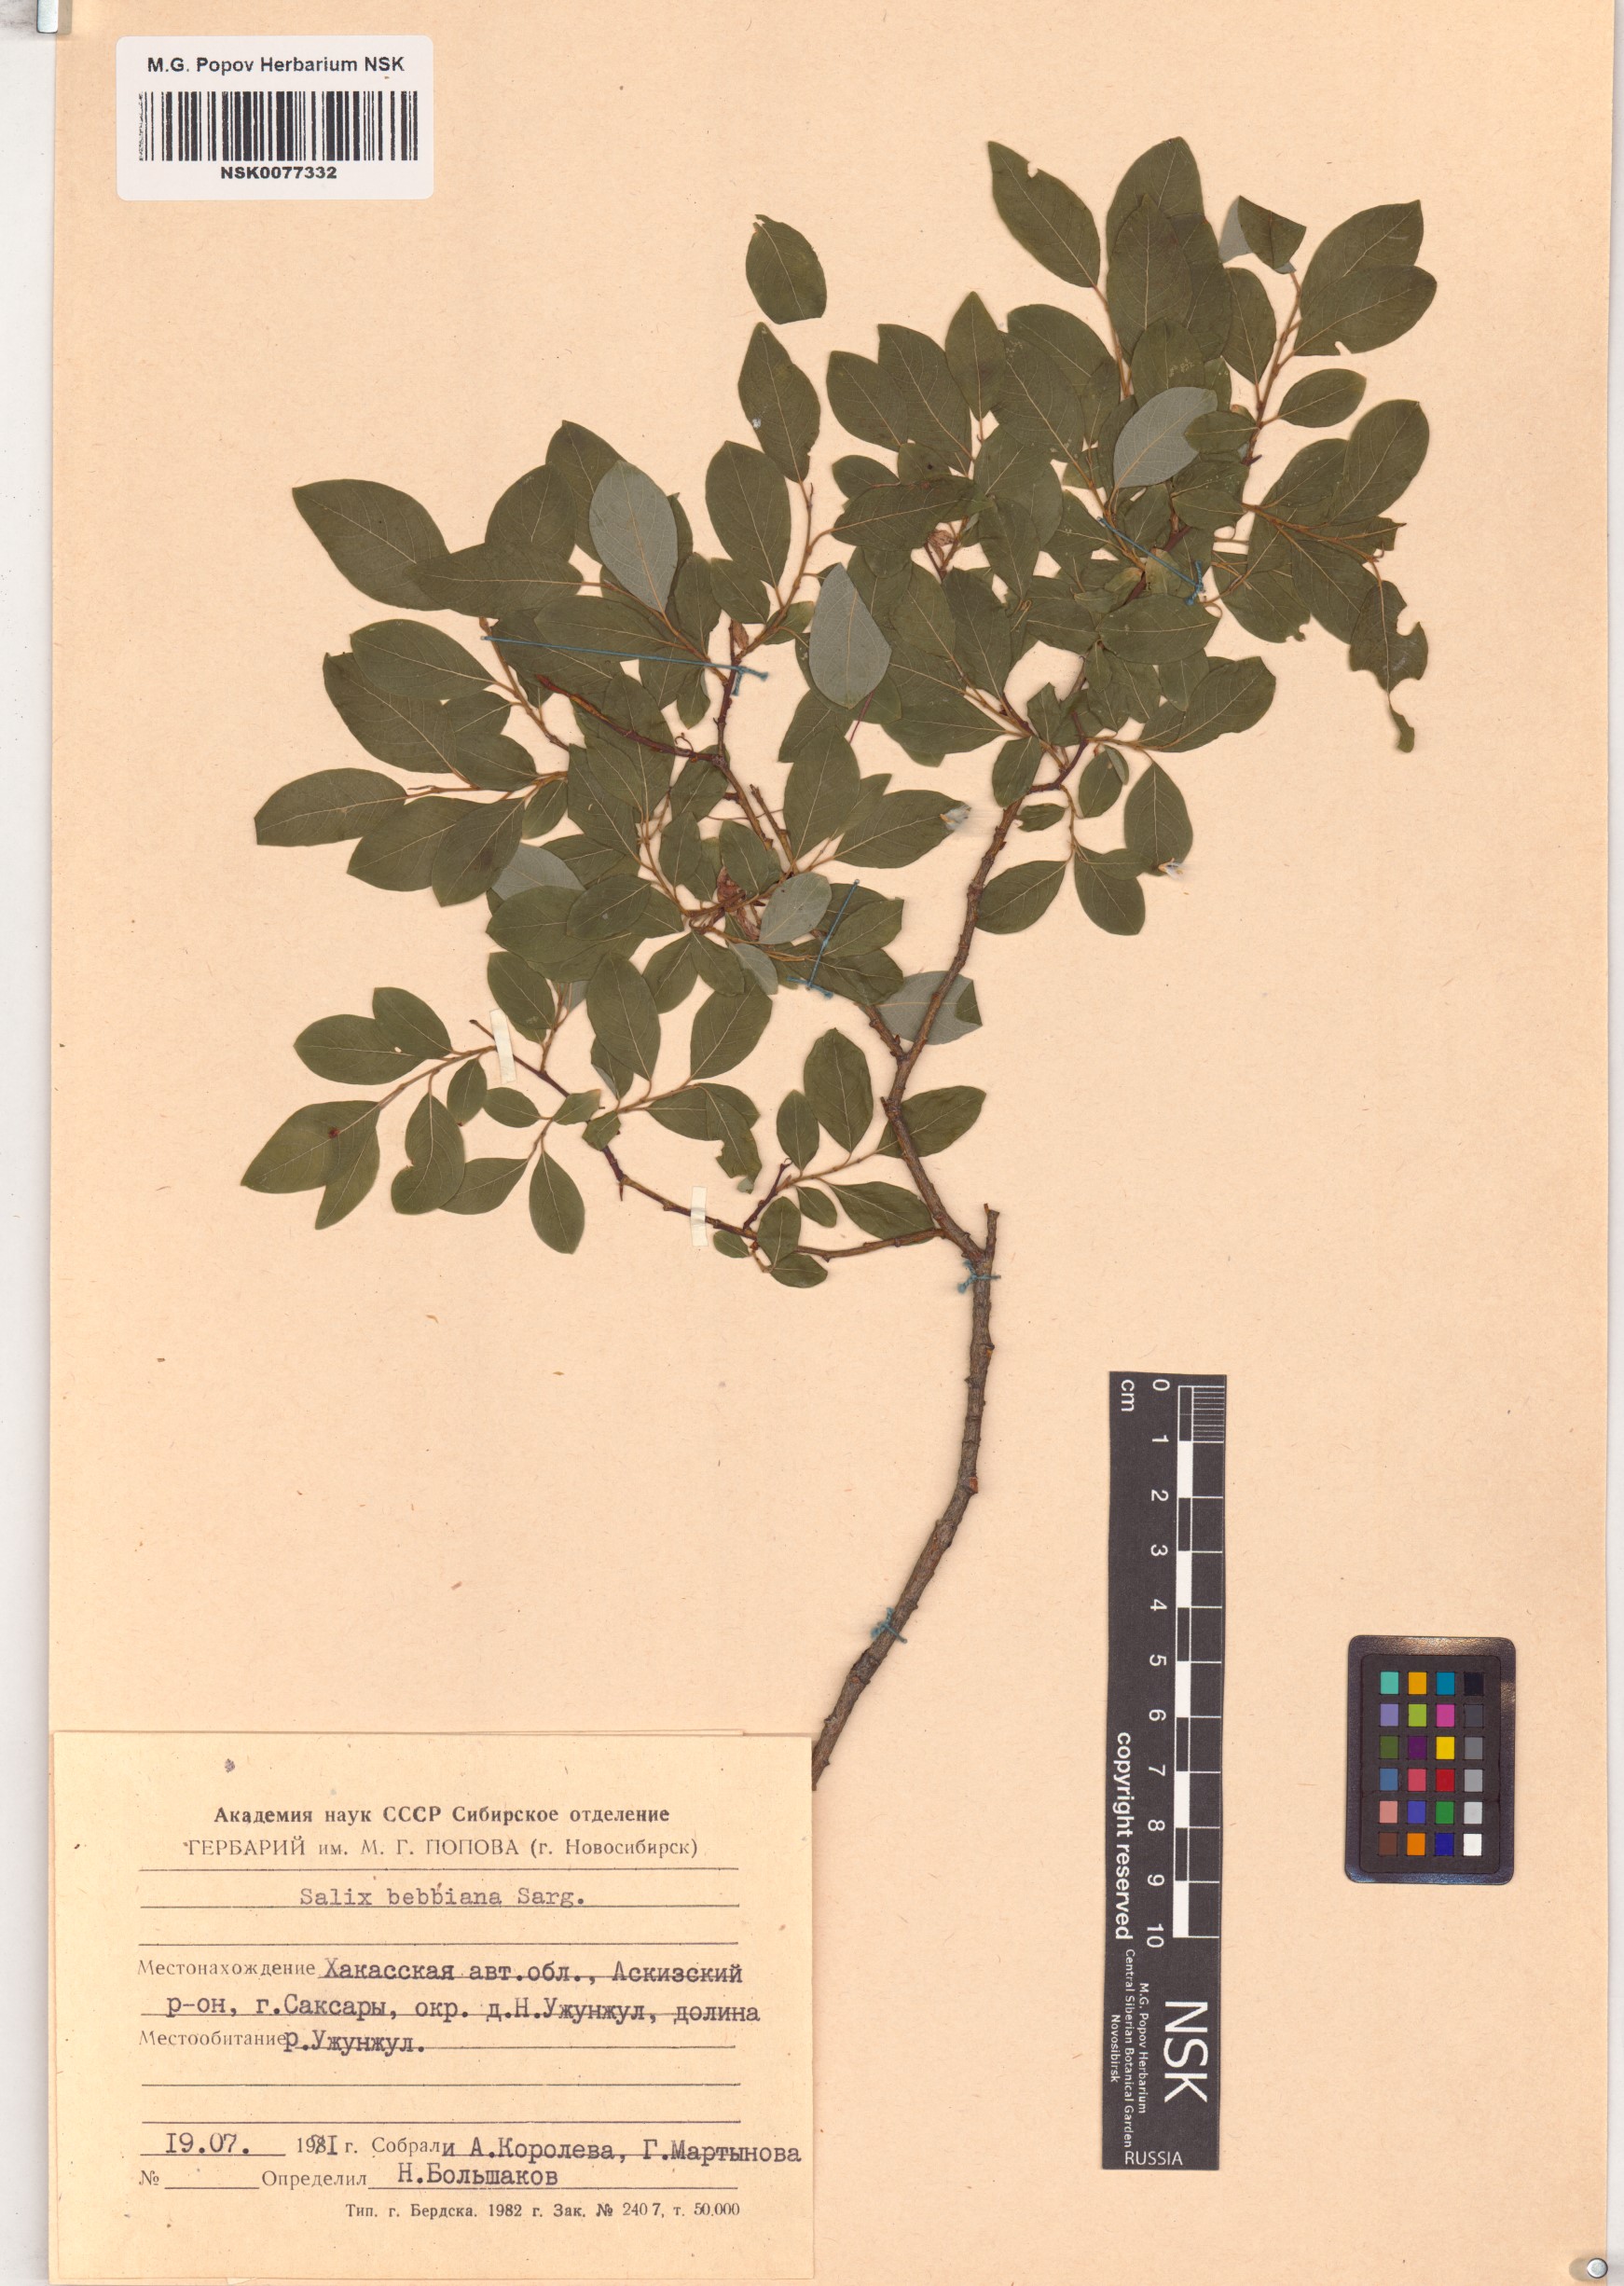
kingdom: Plantae
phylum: Tracheophyta
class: Magnoliopsida
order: Malpighiales
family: Salicaceae
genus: Salix
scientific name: Salix bebbiana
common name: Bebb's willow
